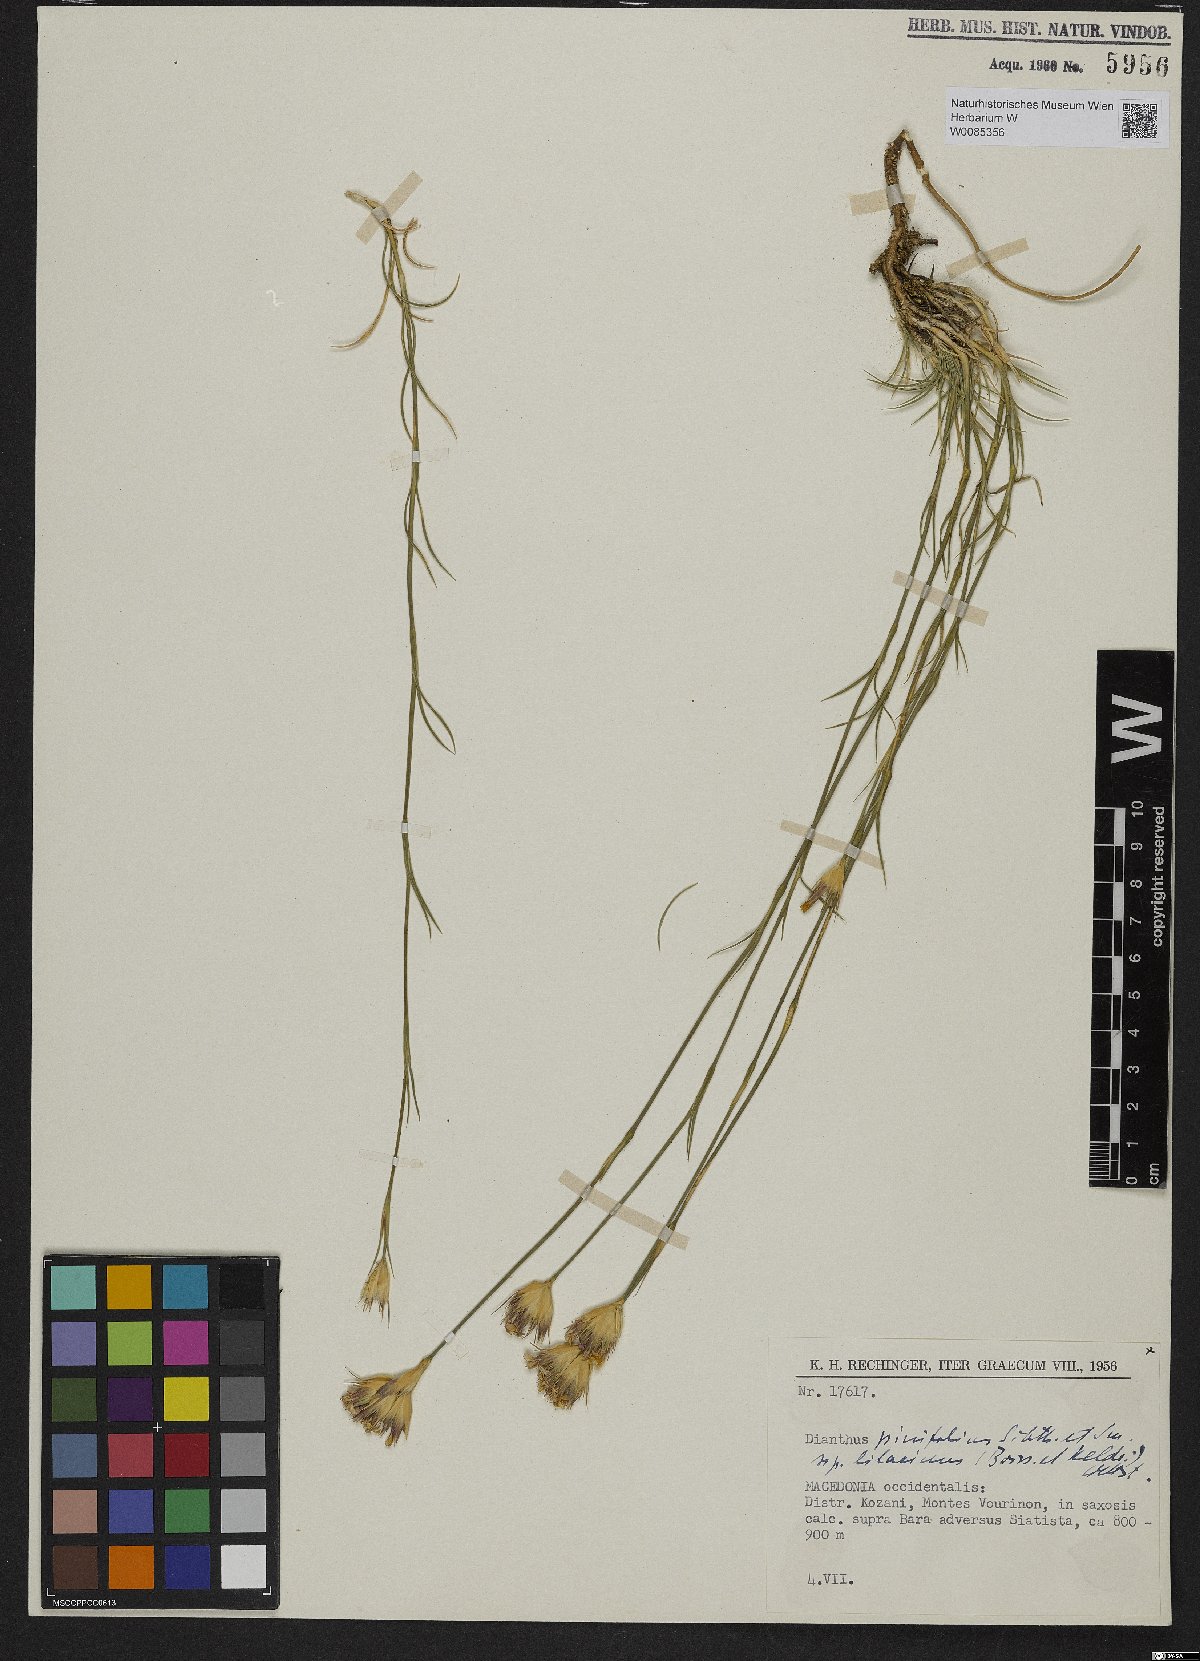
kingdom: Plantae
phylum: Tracheophyta
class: Magnoliopsida
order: Caryophyllales
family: Caryophyllaceae
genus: Dianthus
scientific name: Dianthus pinifolius
